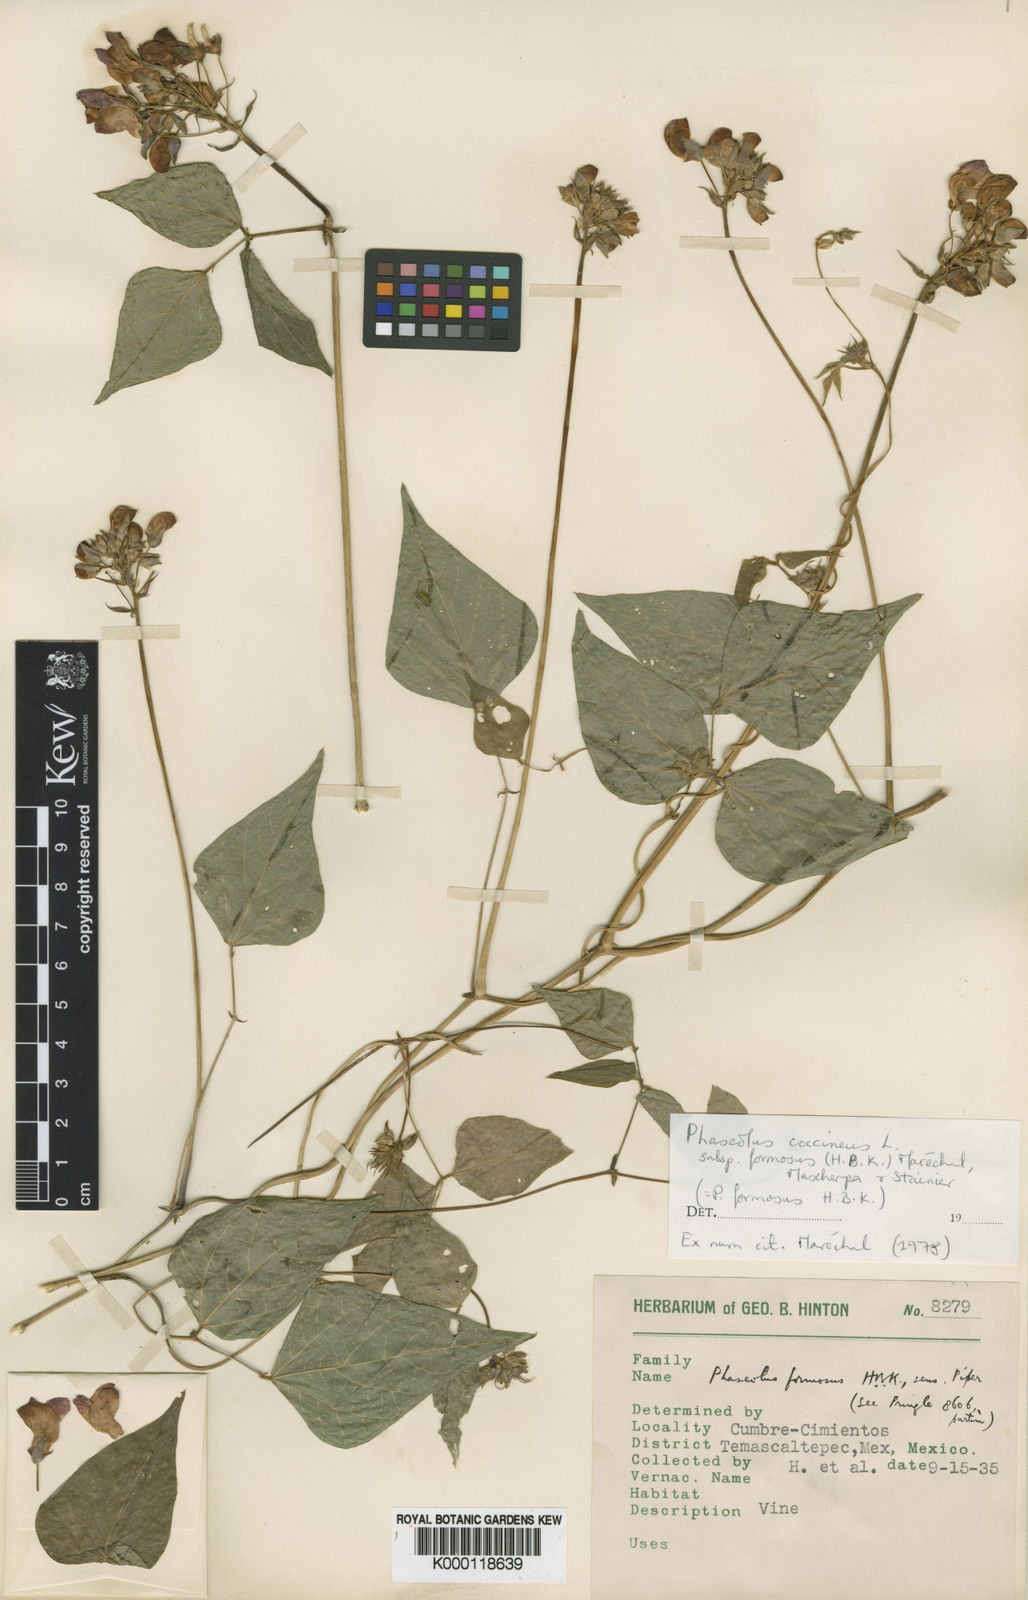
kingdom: Plantae
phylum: Tracheophyta
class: Magnoliopsida
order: Fabales
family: Fabaceae
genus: Phaseolus
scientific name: Phaseolus coccineus
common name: Runner bean
